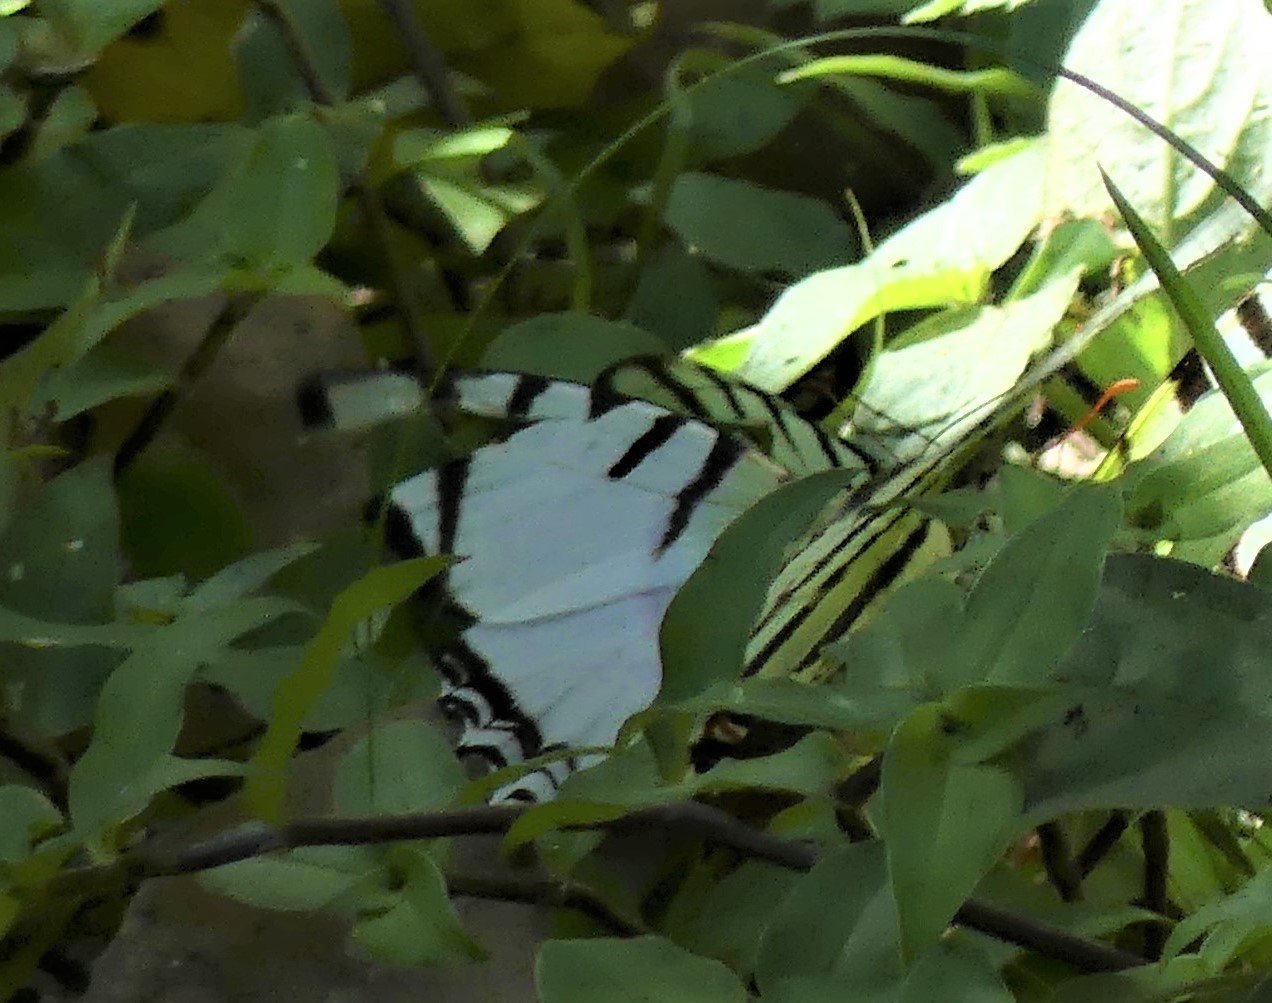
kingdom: Animalia
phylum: Arthropoda
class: Insecta
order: Lepidoptera
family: Papilionidae
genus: Eurytides
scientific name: Eurytides
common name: Great Kite-Swallowtail
